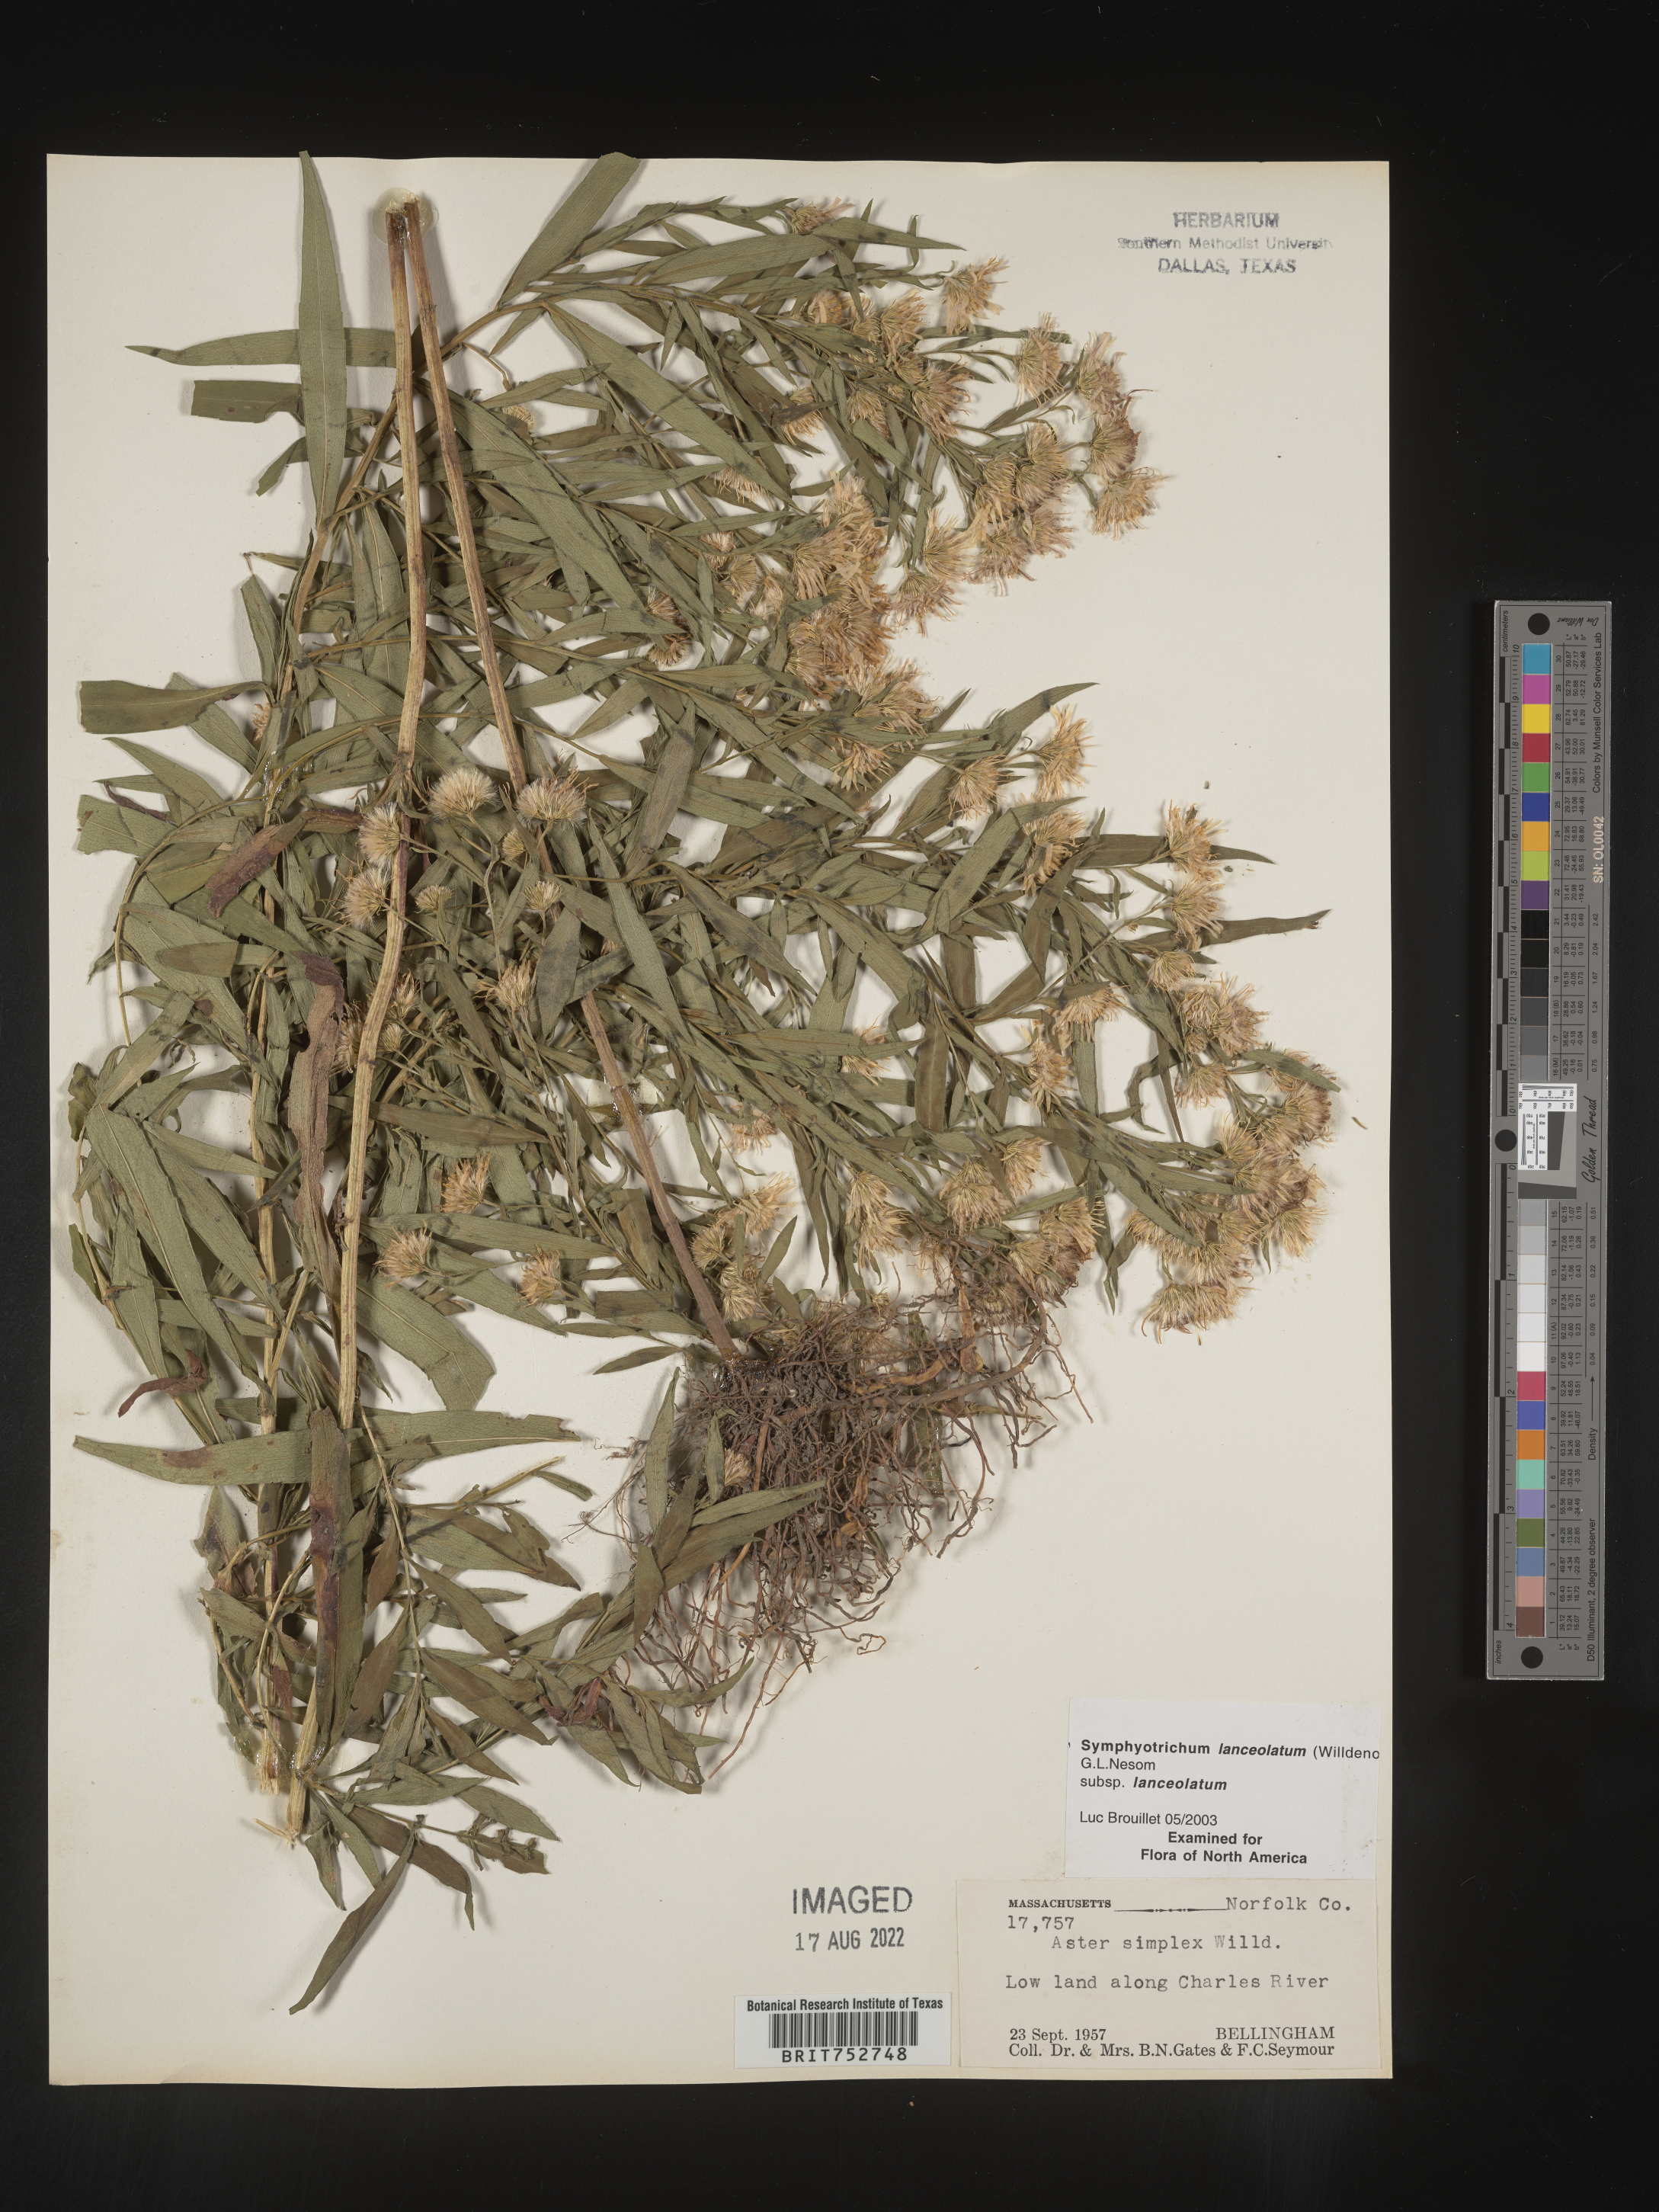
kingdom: Plantae
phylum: Tracheophyta
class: Magnoliopsida
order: Asterales
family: Asteraceae
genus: Symphyotrichum
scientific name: Symphyotrichum lanceolatum
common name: Panicled aster
